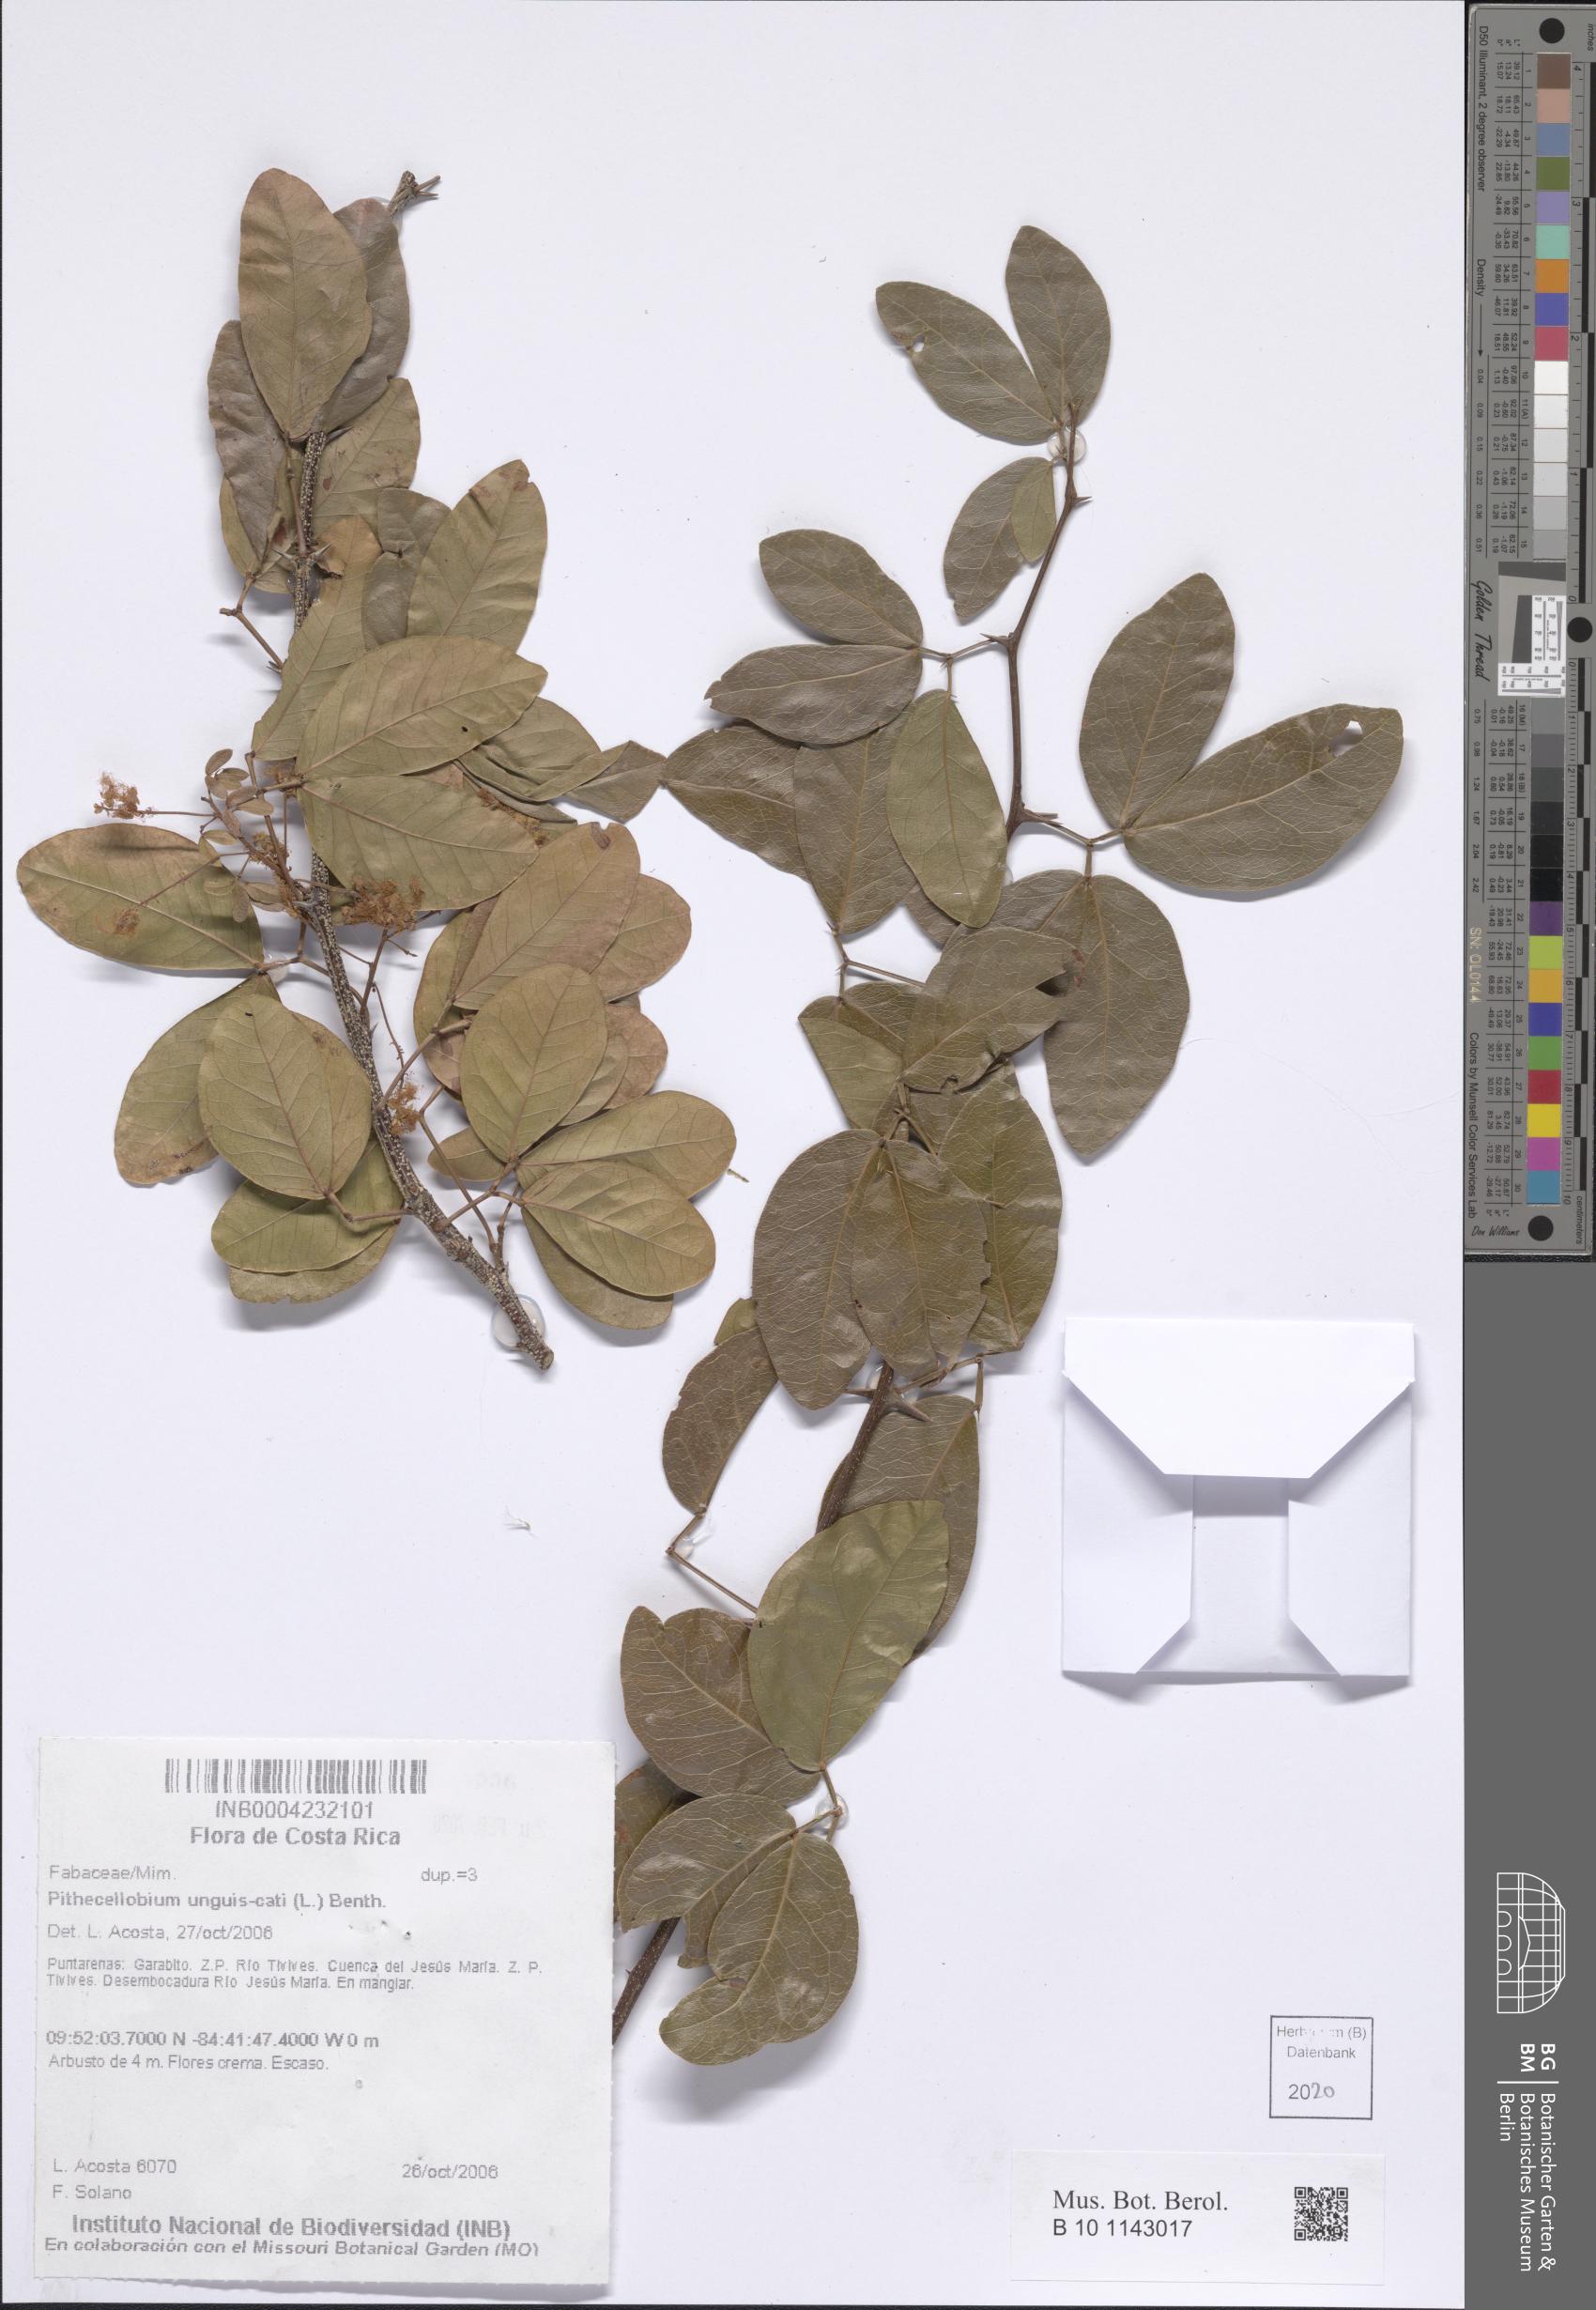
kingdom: Plantae
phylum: Tracheophyta
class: Magnoliopsida
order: Fabales
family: Fabaceae
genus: Pithecellobium
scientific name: Pithecellobium unguis-cati
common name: Cat's-claw
